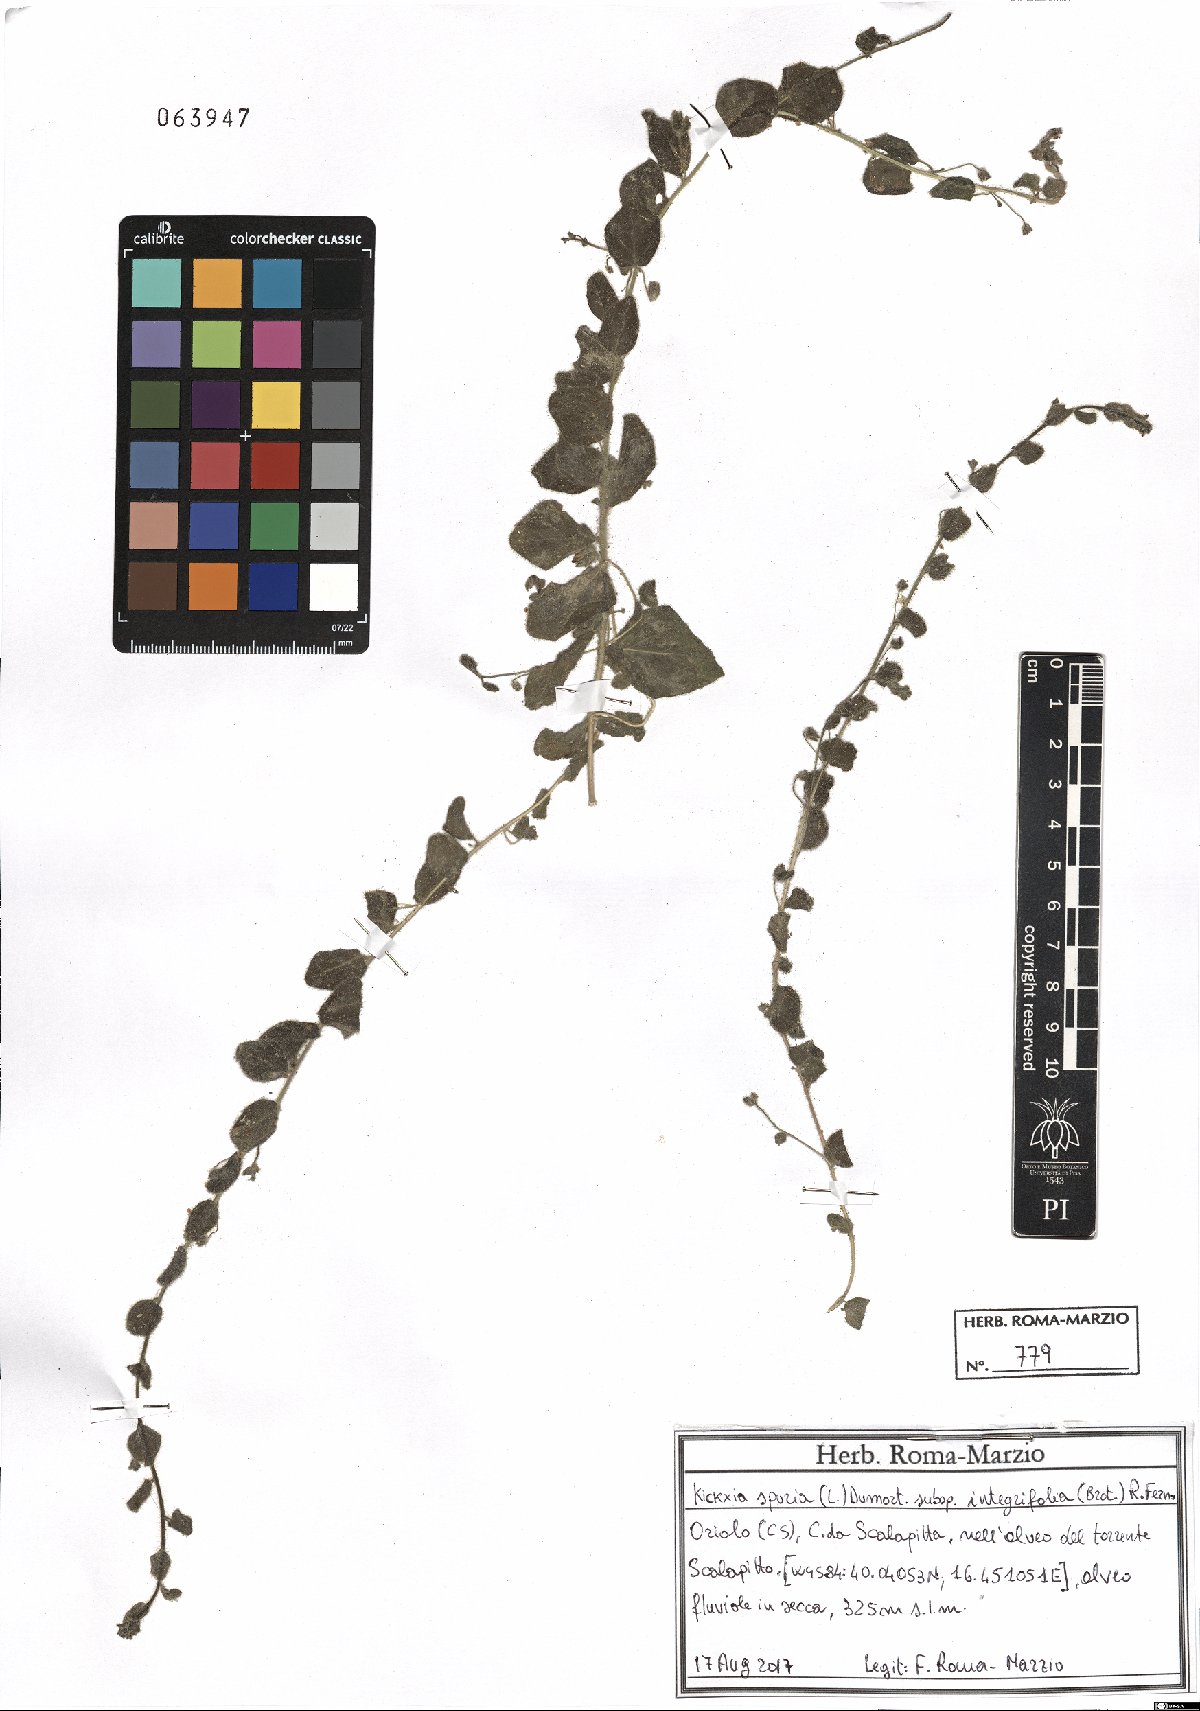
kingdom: Plantae
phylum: Tracheophyta
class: Magnoliopsida
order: Lamiales
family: Plantaginaceae
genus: Kickxia
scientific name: Kickxia spuria
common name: Round-leaved fluellen
